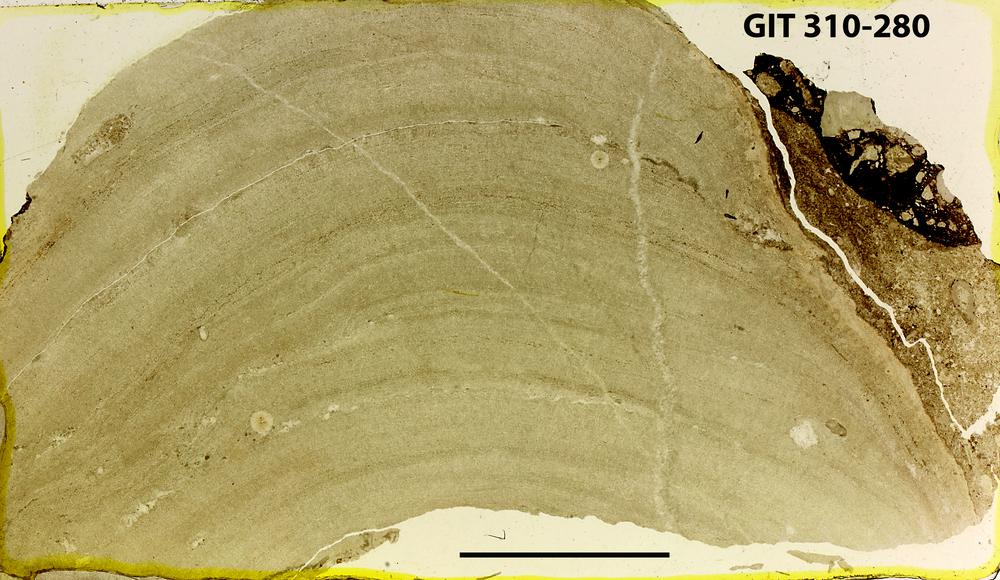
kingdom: Animalia
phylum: Porifera
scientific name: Porifera
